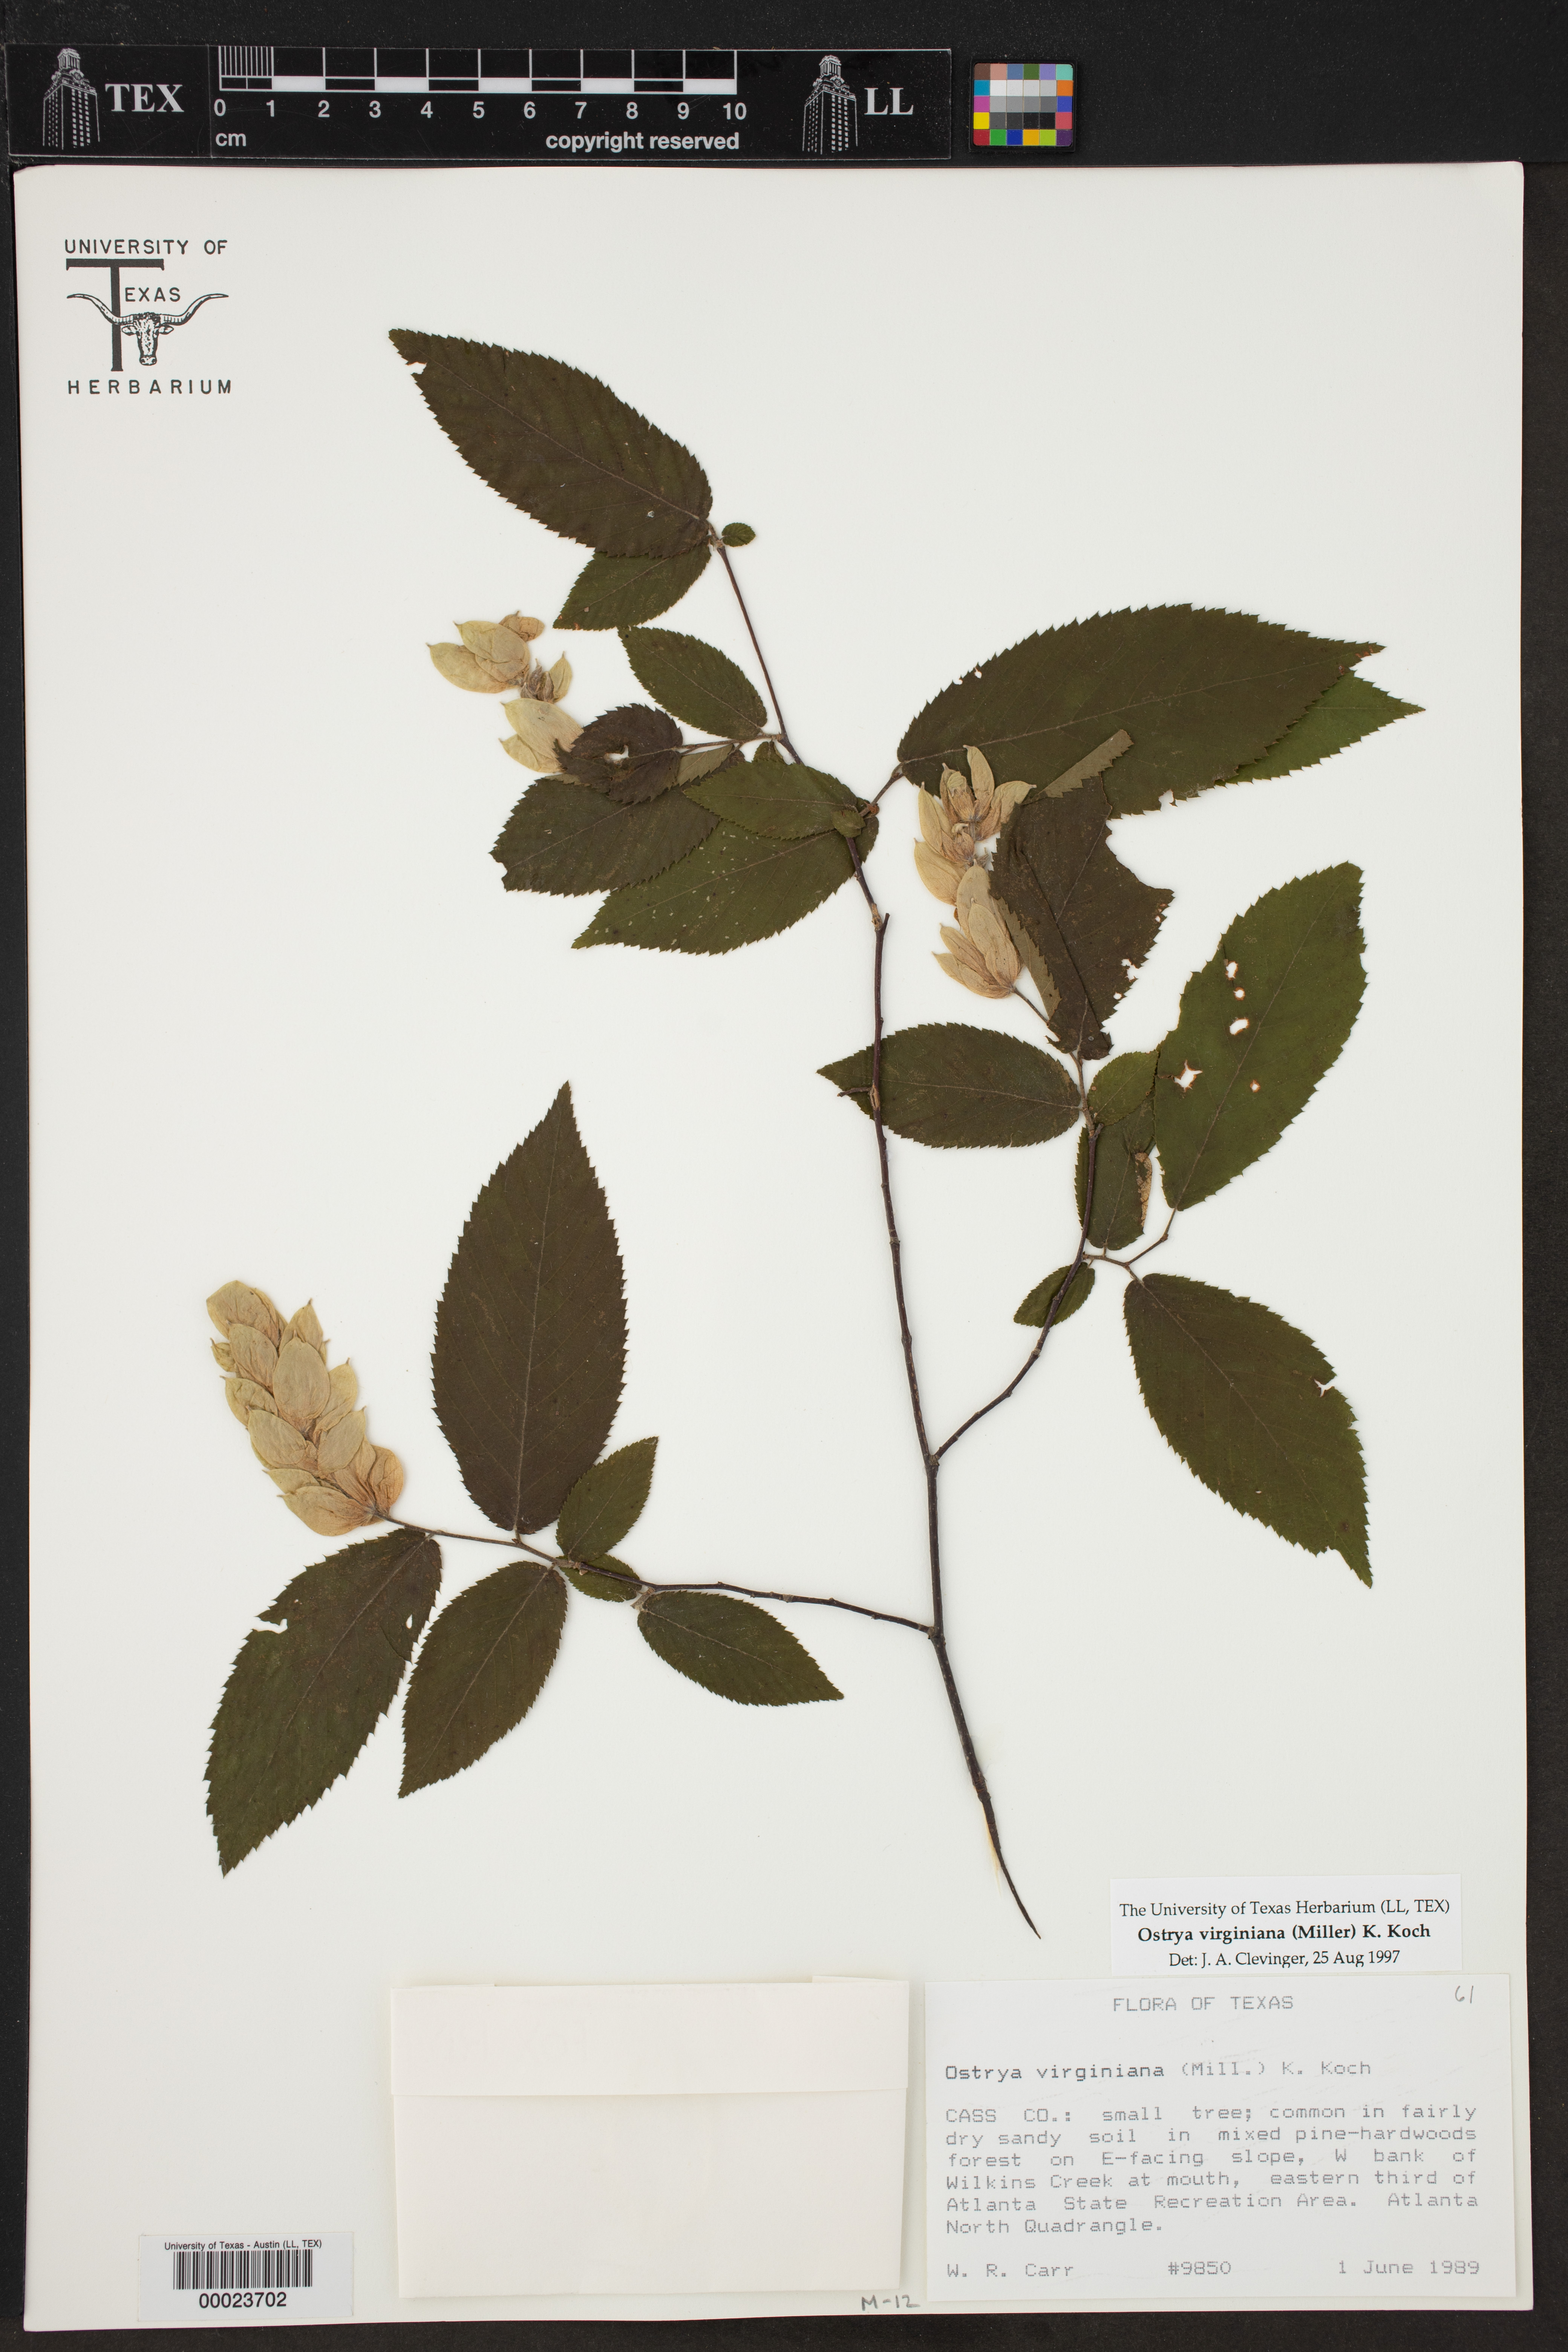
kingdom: Plantae
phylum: Tracheophyta
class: Magnoliopsida
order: Fagales
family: Betulaceae
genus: Ostrya
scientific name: Ostrya virginiana
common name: Ironwood
